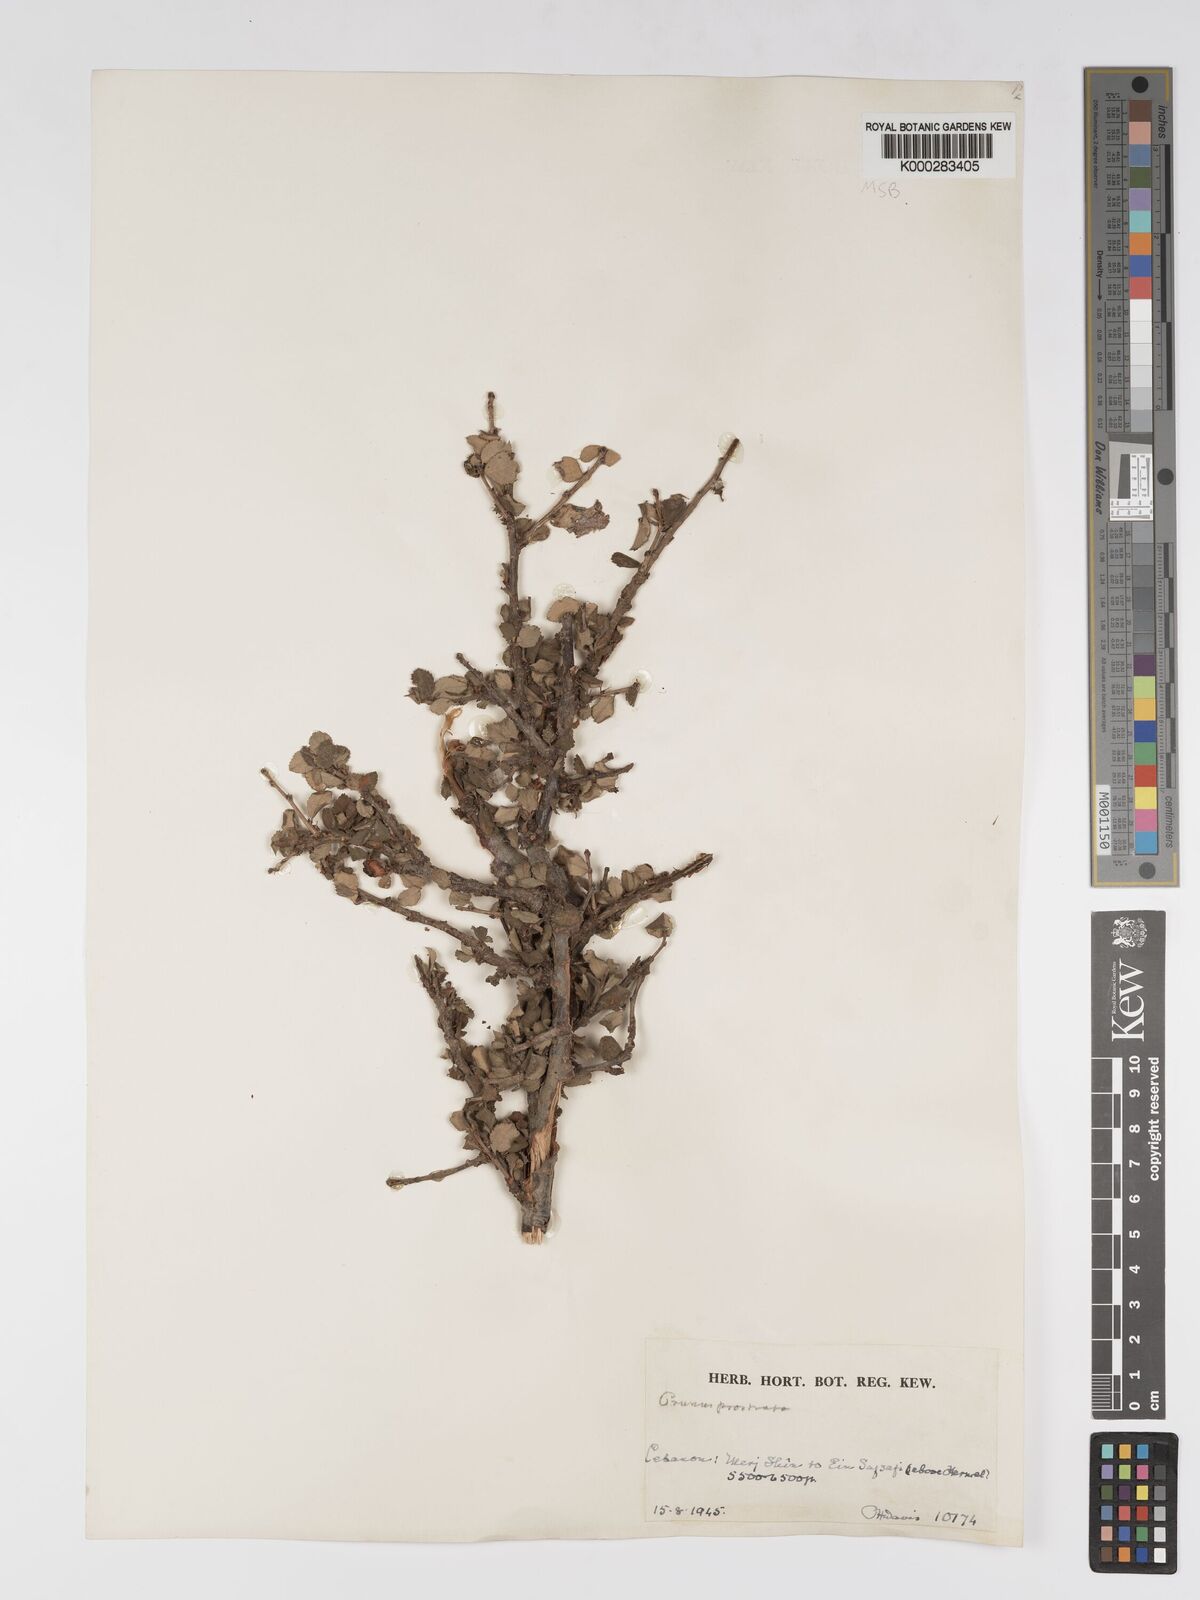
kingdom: Plantae
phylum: Tracheophyta
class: Magnoliopsida
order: Rosales
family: Rosaceae
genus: Prunus
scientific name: Prunus prostrata
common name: Mountain cherry
